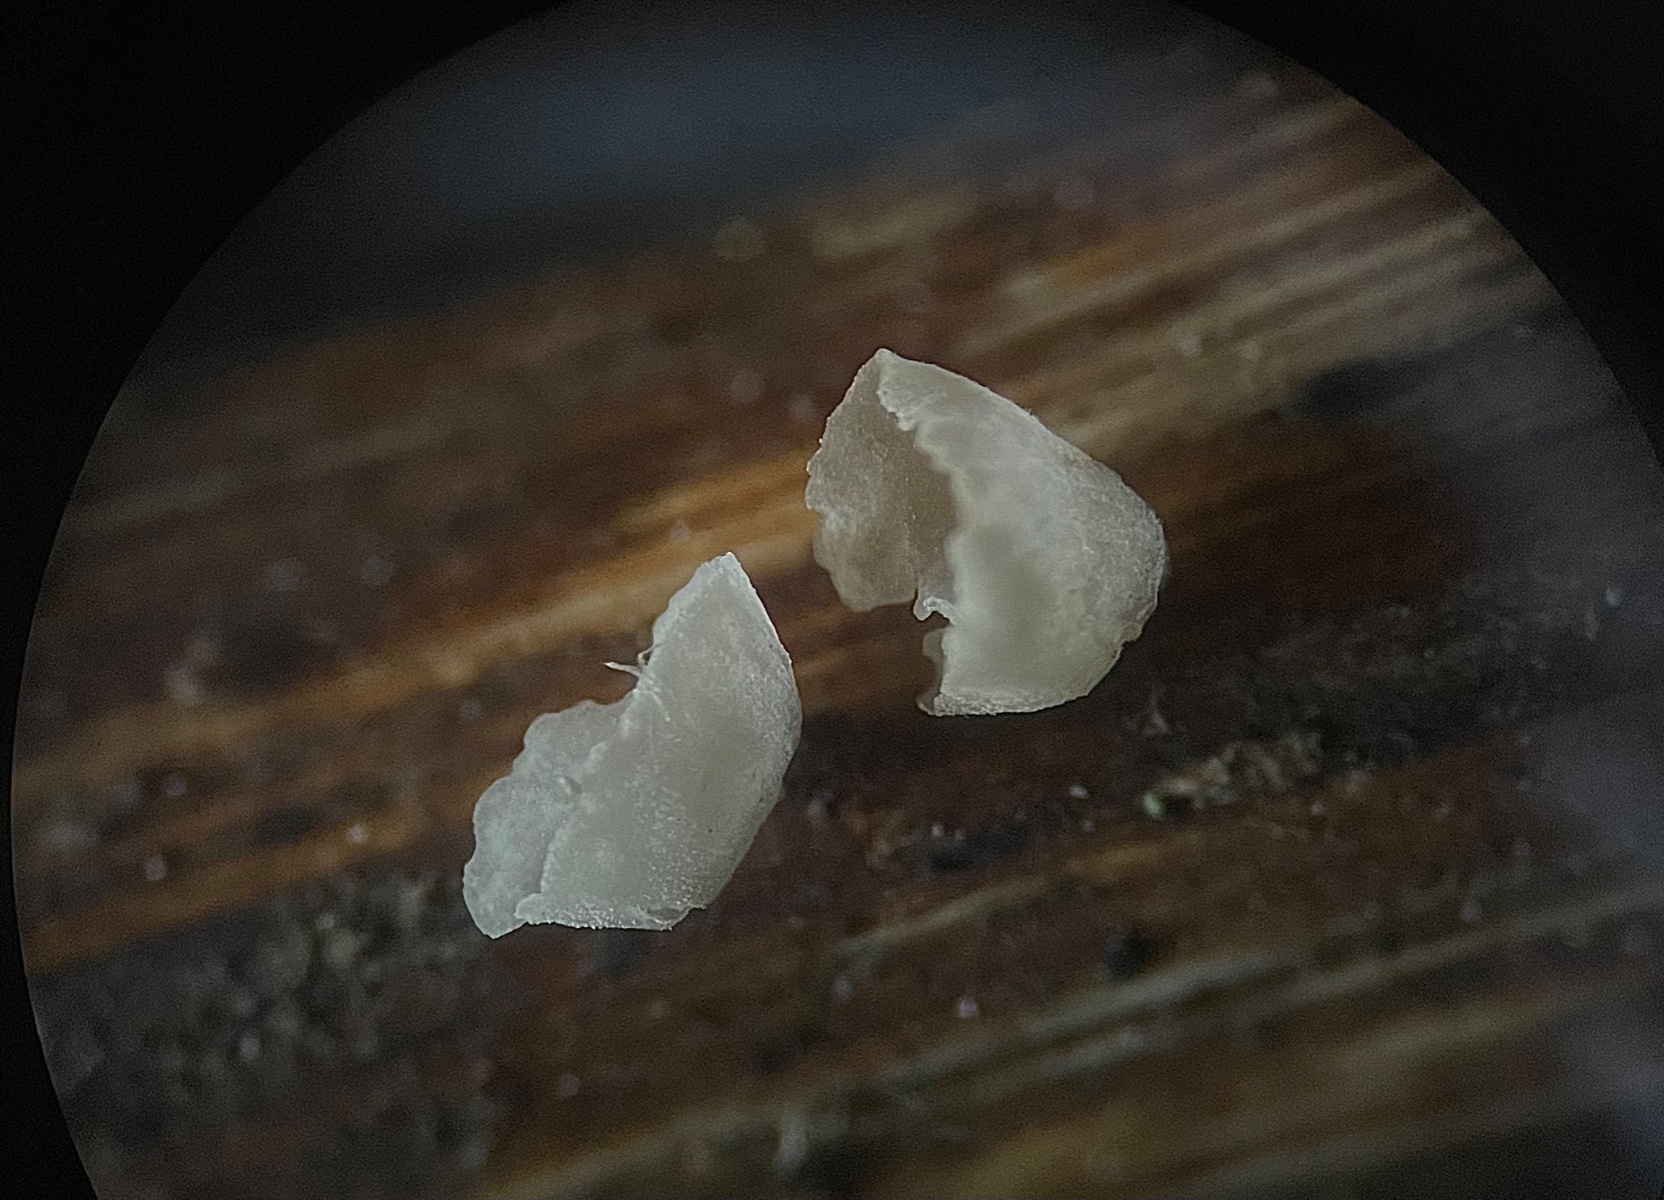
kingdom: Fungi
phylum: Basidiomycota
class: Agaricomycetes
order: Agaricales
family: Marasmiaceae
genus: Calyptella
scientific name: Calyptella capula
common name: hvidlig nældehue
